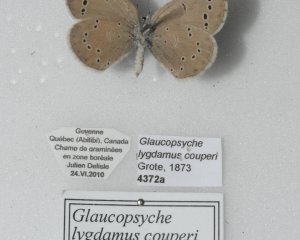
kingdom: Animalia
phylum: Arthropoda
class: Insecta
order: Lepidoptera
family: Lycaenidae
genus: Glaucopsyche
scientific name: Glaucopsyche lygdamus
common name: Silvery Blue
